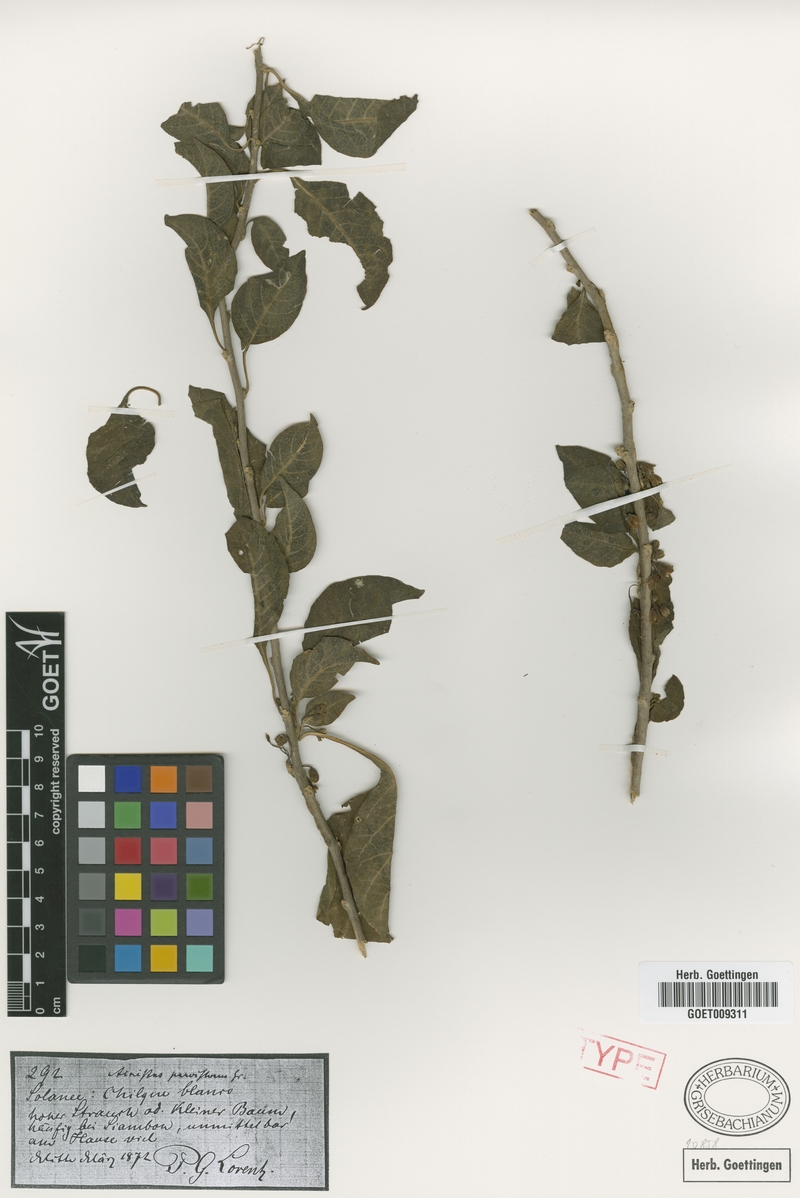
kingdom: Plantae
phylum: Tracheophyta
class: Magnoliopsida
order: Solanales
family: Solanaceae
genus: Vassobia
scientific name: Vassobia breviflora
